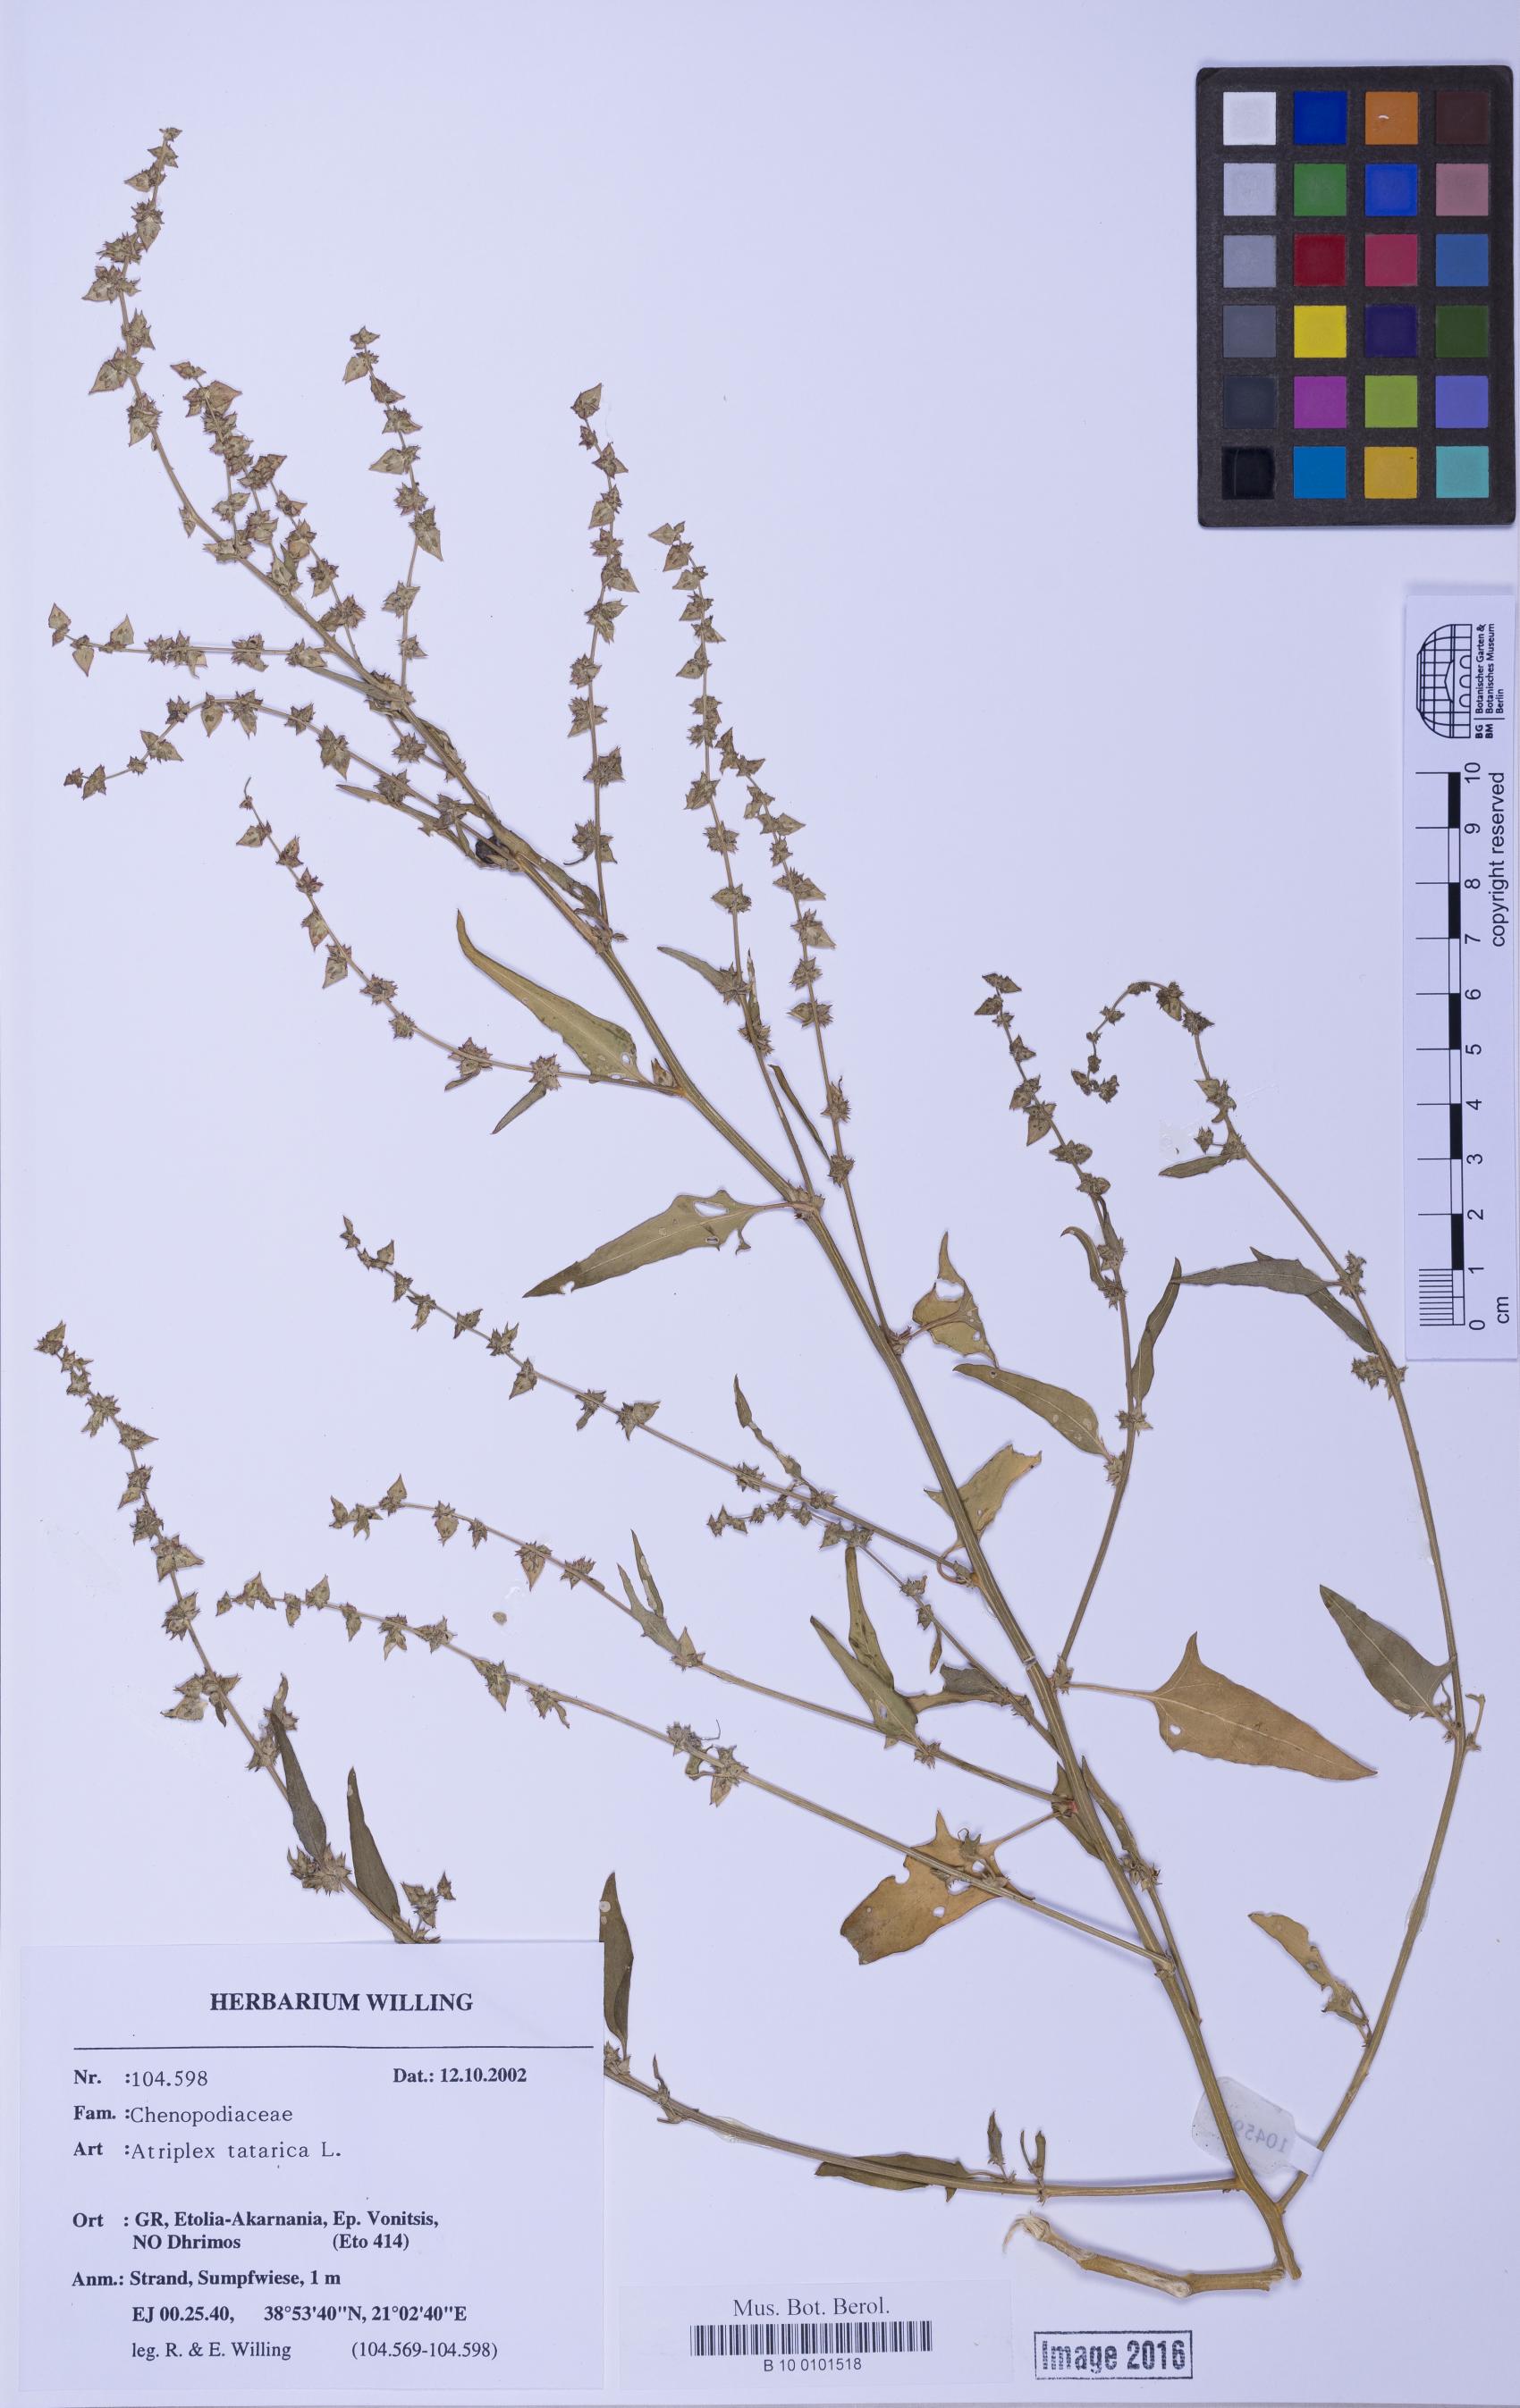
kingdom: Plantae
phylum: Tracheophyta
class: Magnoliopsida
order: Caryophyllales
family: Amaranthaceae
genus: Atriplex
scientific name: Atriplex prostrata
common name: Spear-leaved orache
